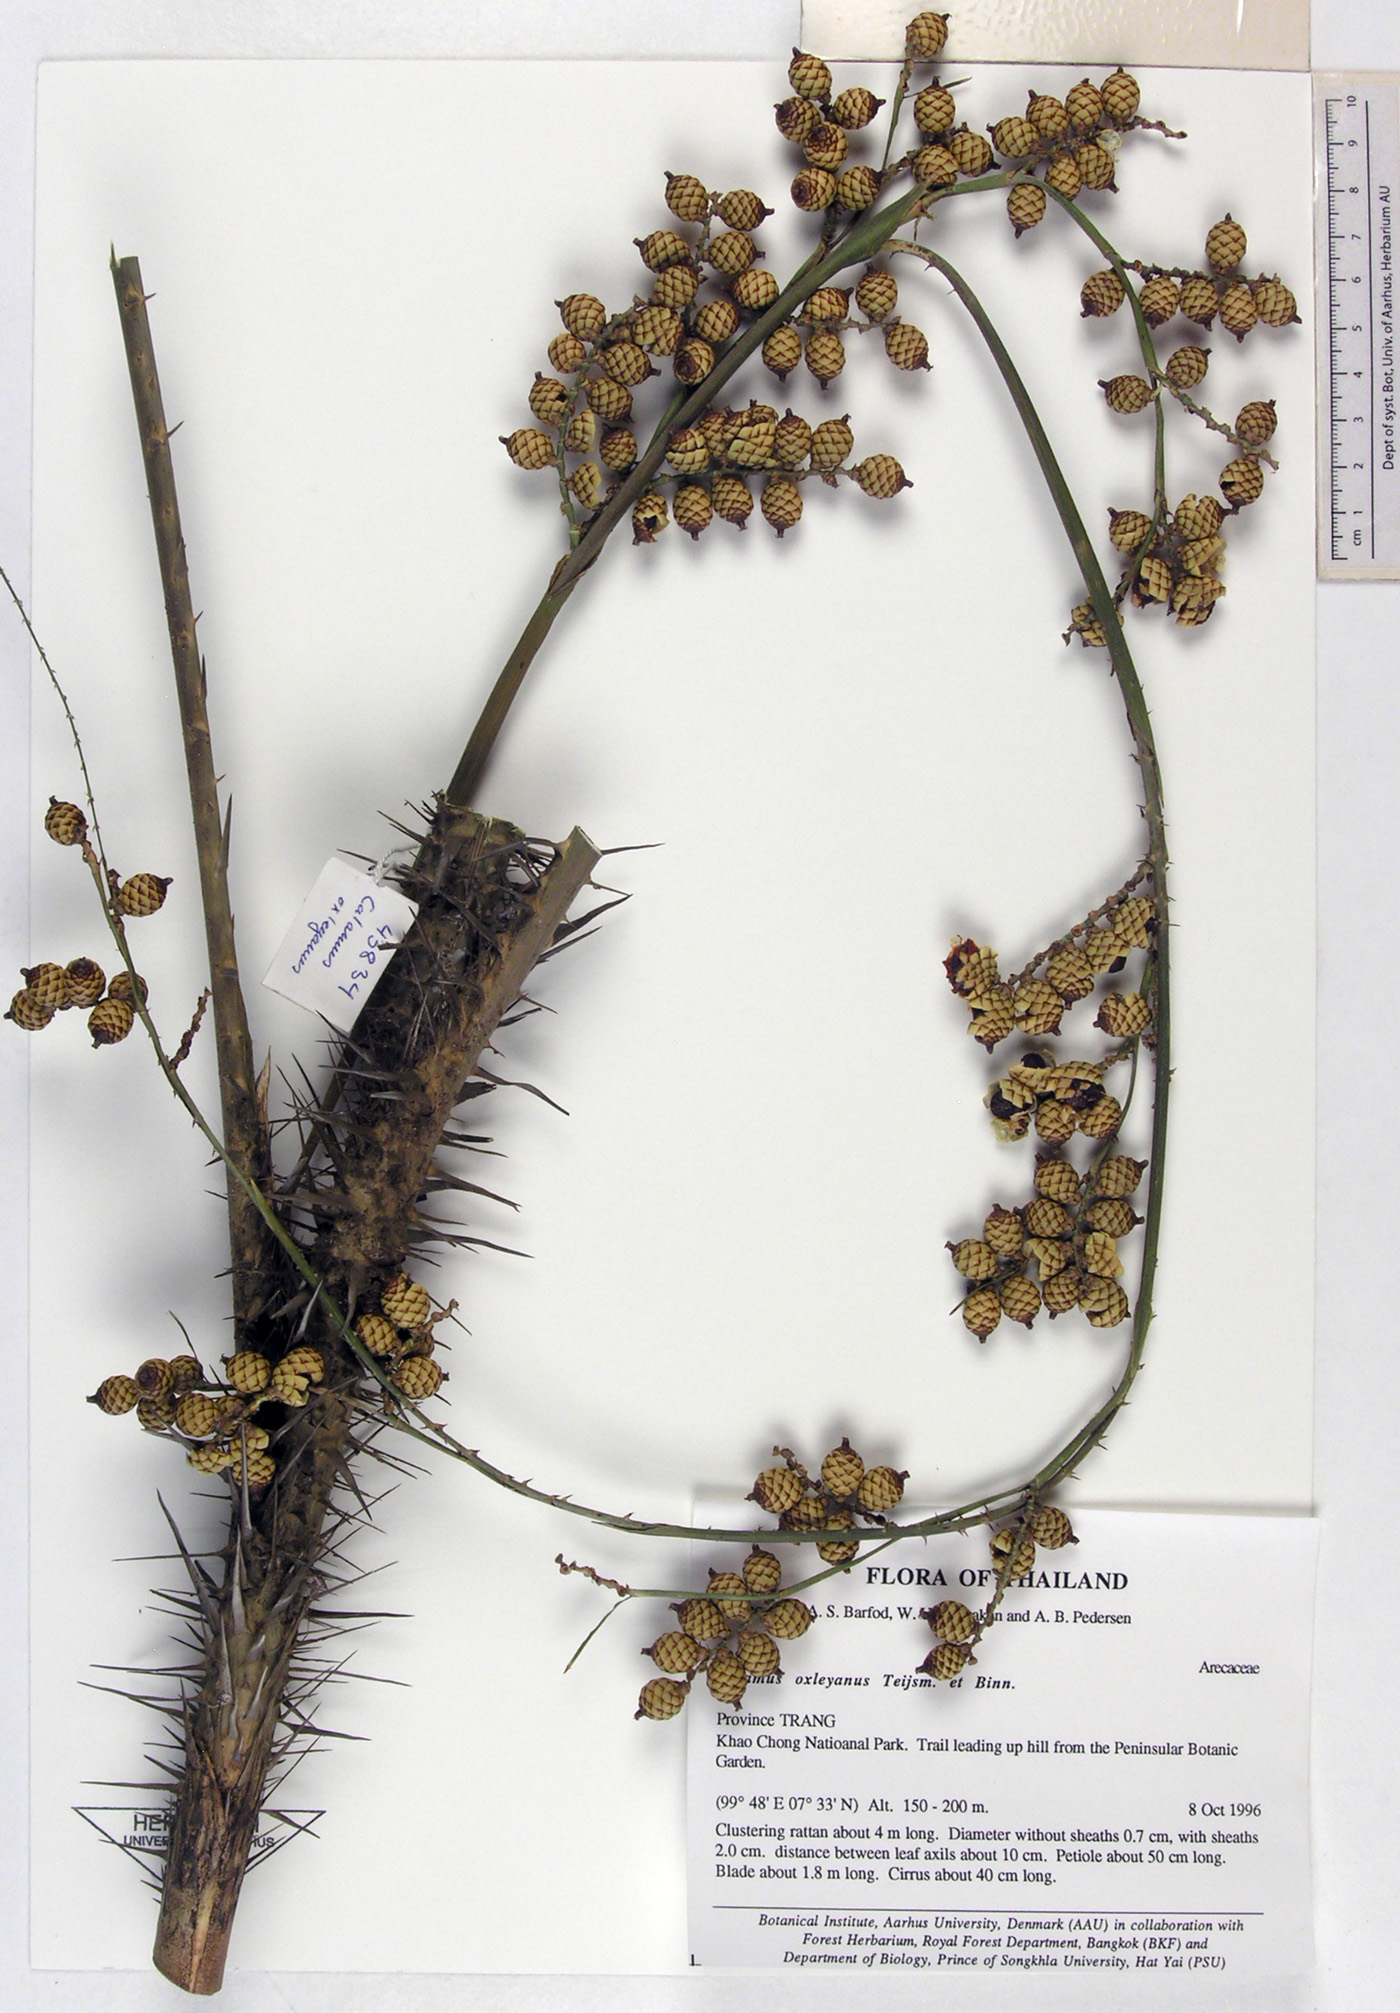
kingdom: Plantae
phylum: Tracheophyta
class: Liliopsida
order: Arecales
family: Arecaceae
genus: Calamus
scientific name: Calamus oxleyanus
